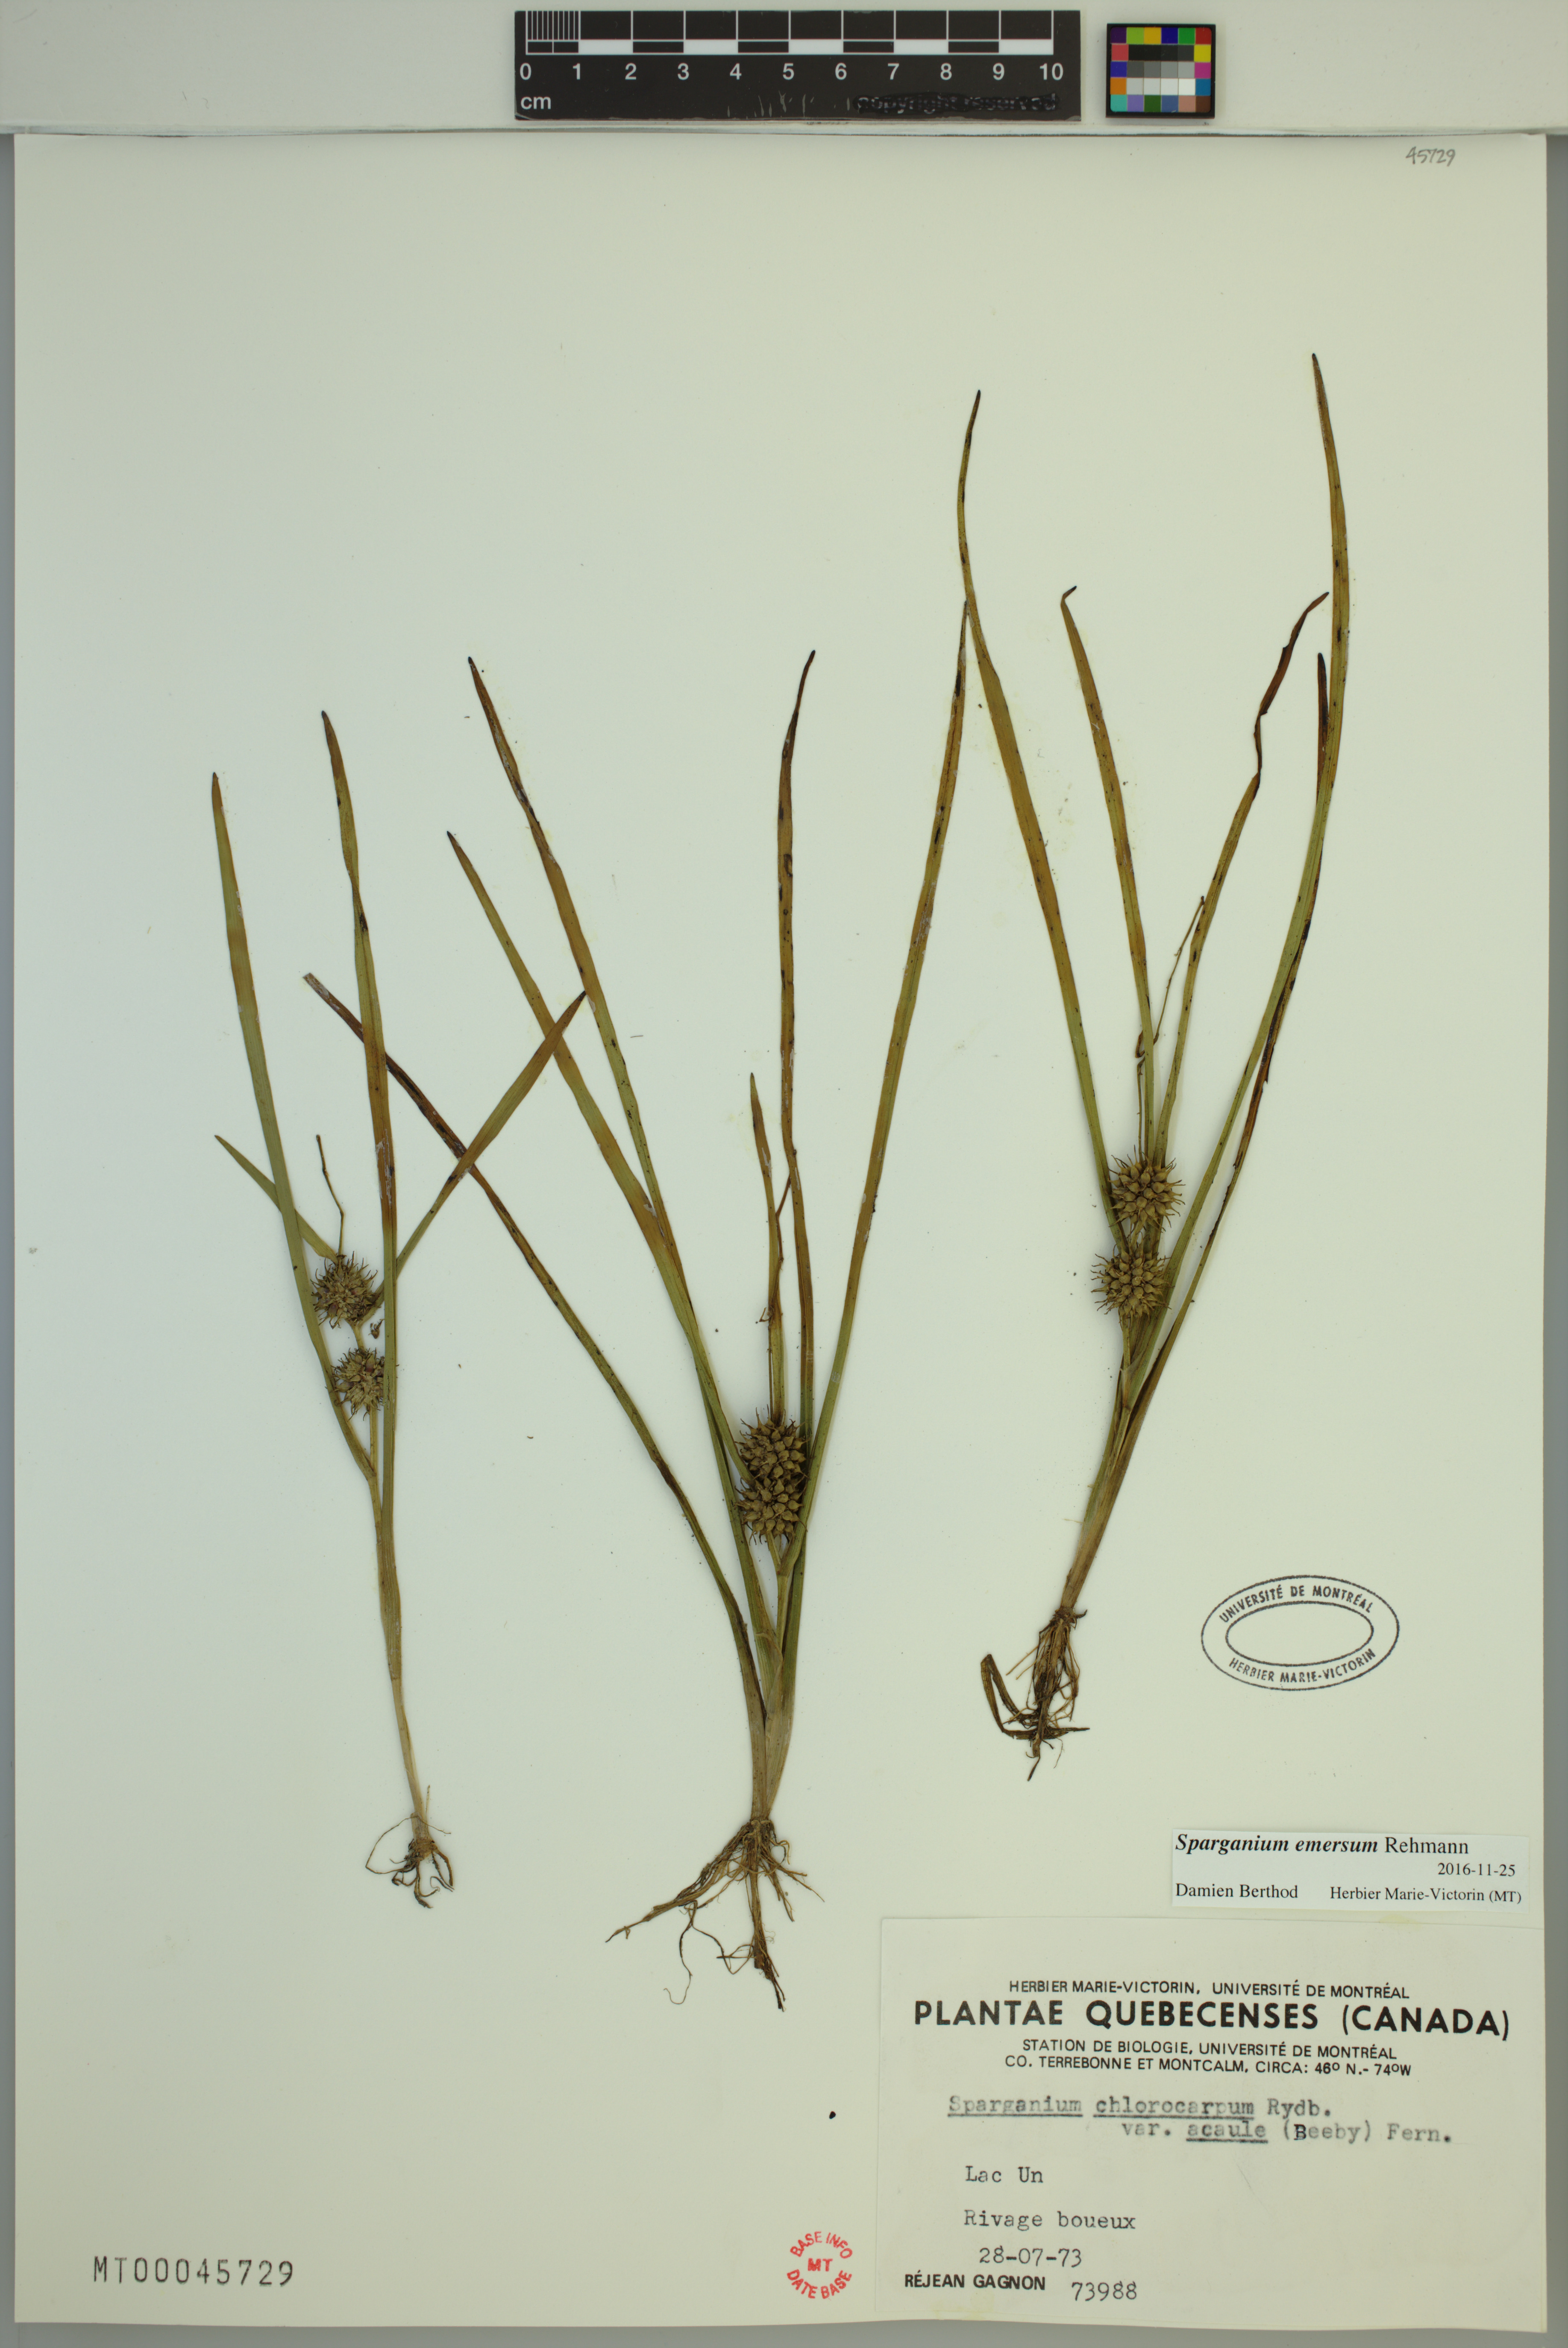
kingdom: Plantae
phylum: Tracheophyta
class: Liliopsida
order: Poales
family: Typhaceae
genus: Sparganium
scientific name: Sparganium emersum
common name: Unbranched bur-reed
